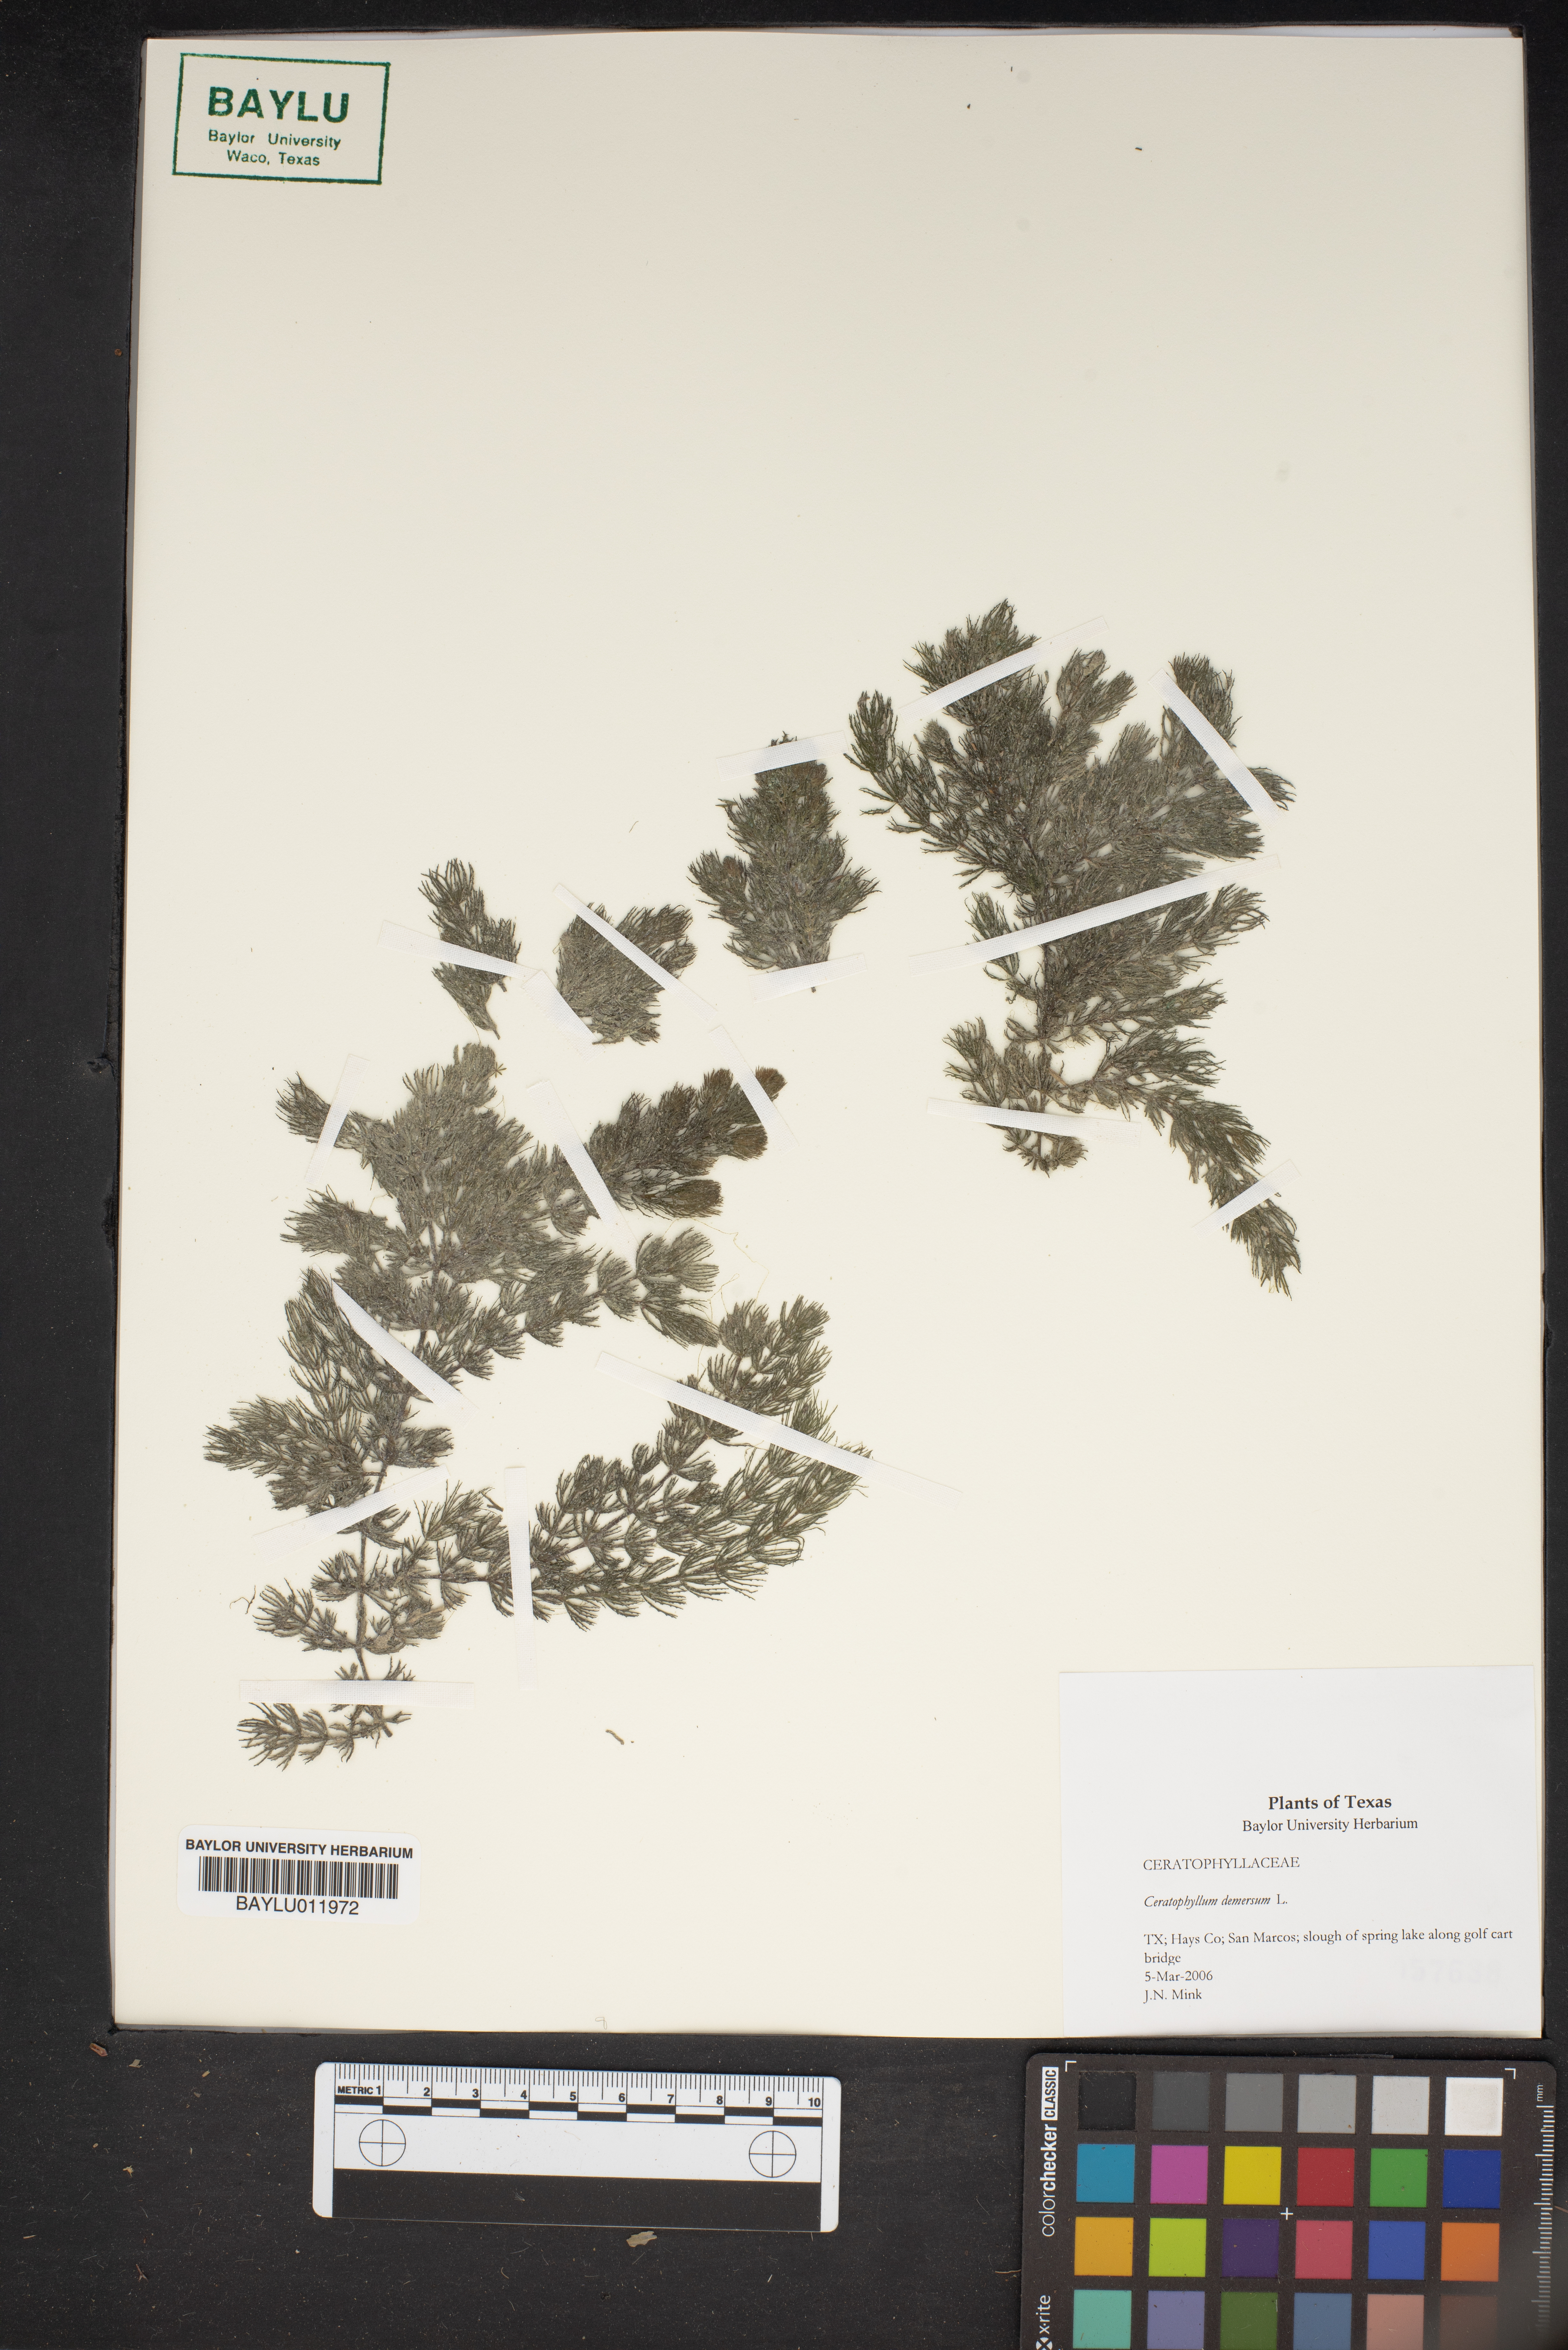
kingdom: Plantae
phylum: Tracheophyta
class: Magnoliopsida
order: Ceratophyllales
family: Ceratophyllaceae
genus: Ceratophyllum
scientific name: Ceratophyllum demersum
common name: Rigid hornwort
